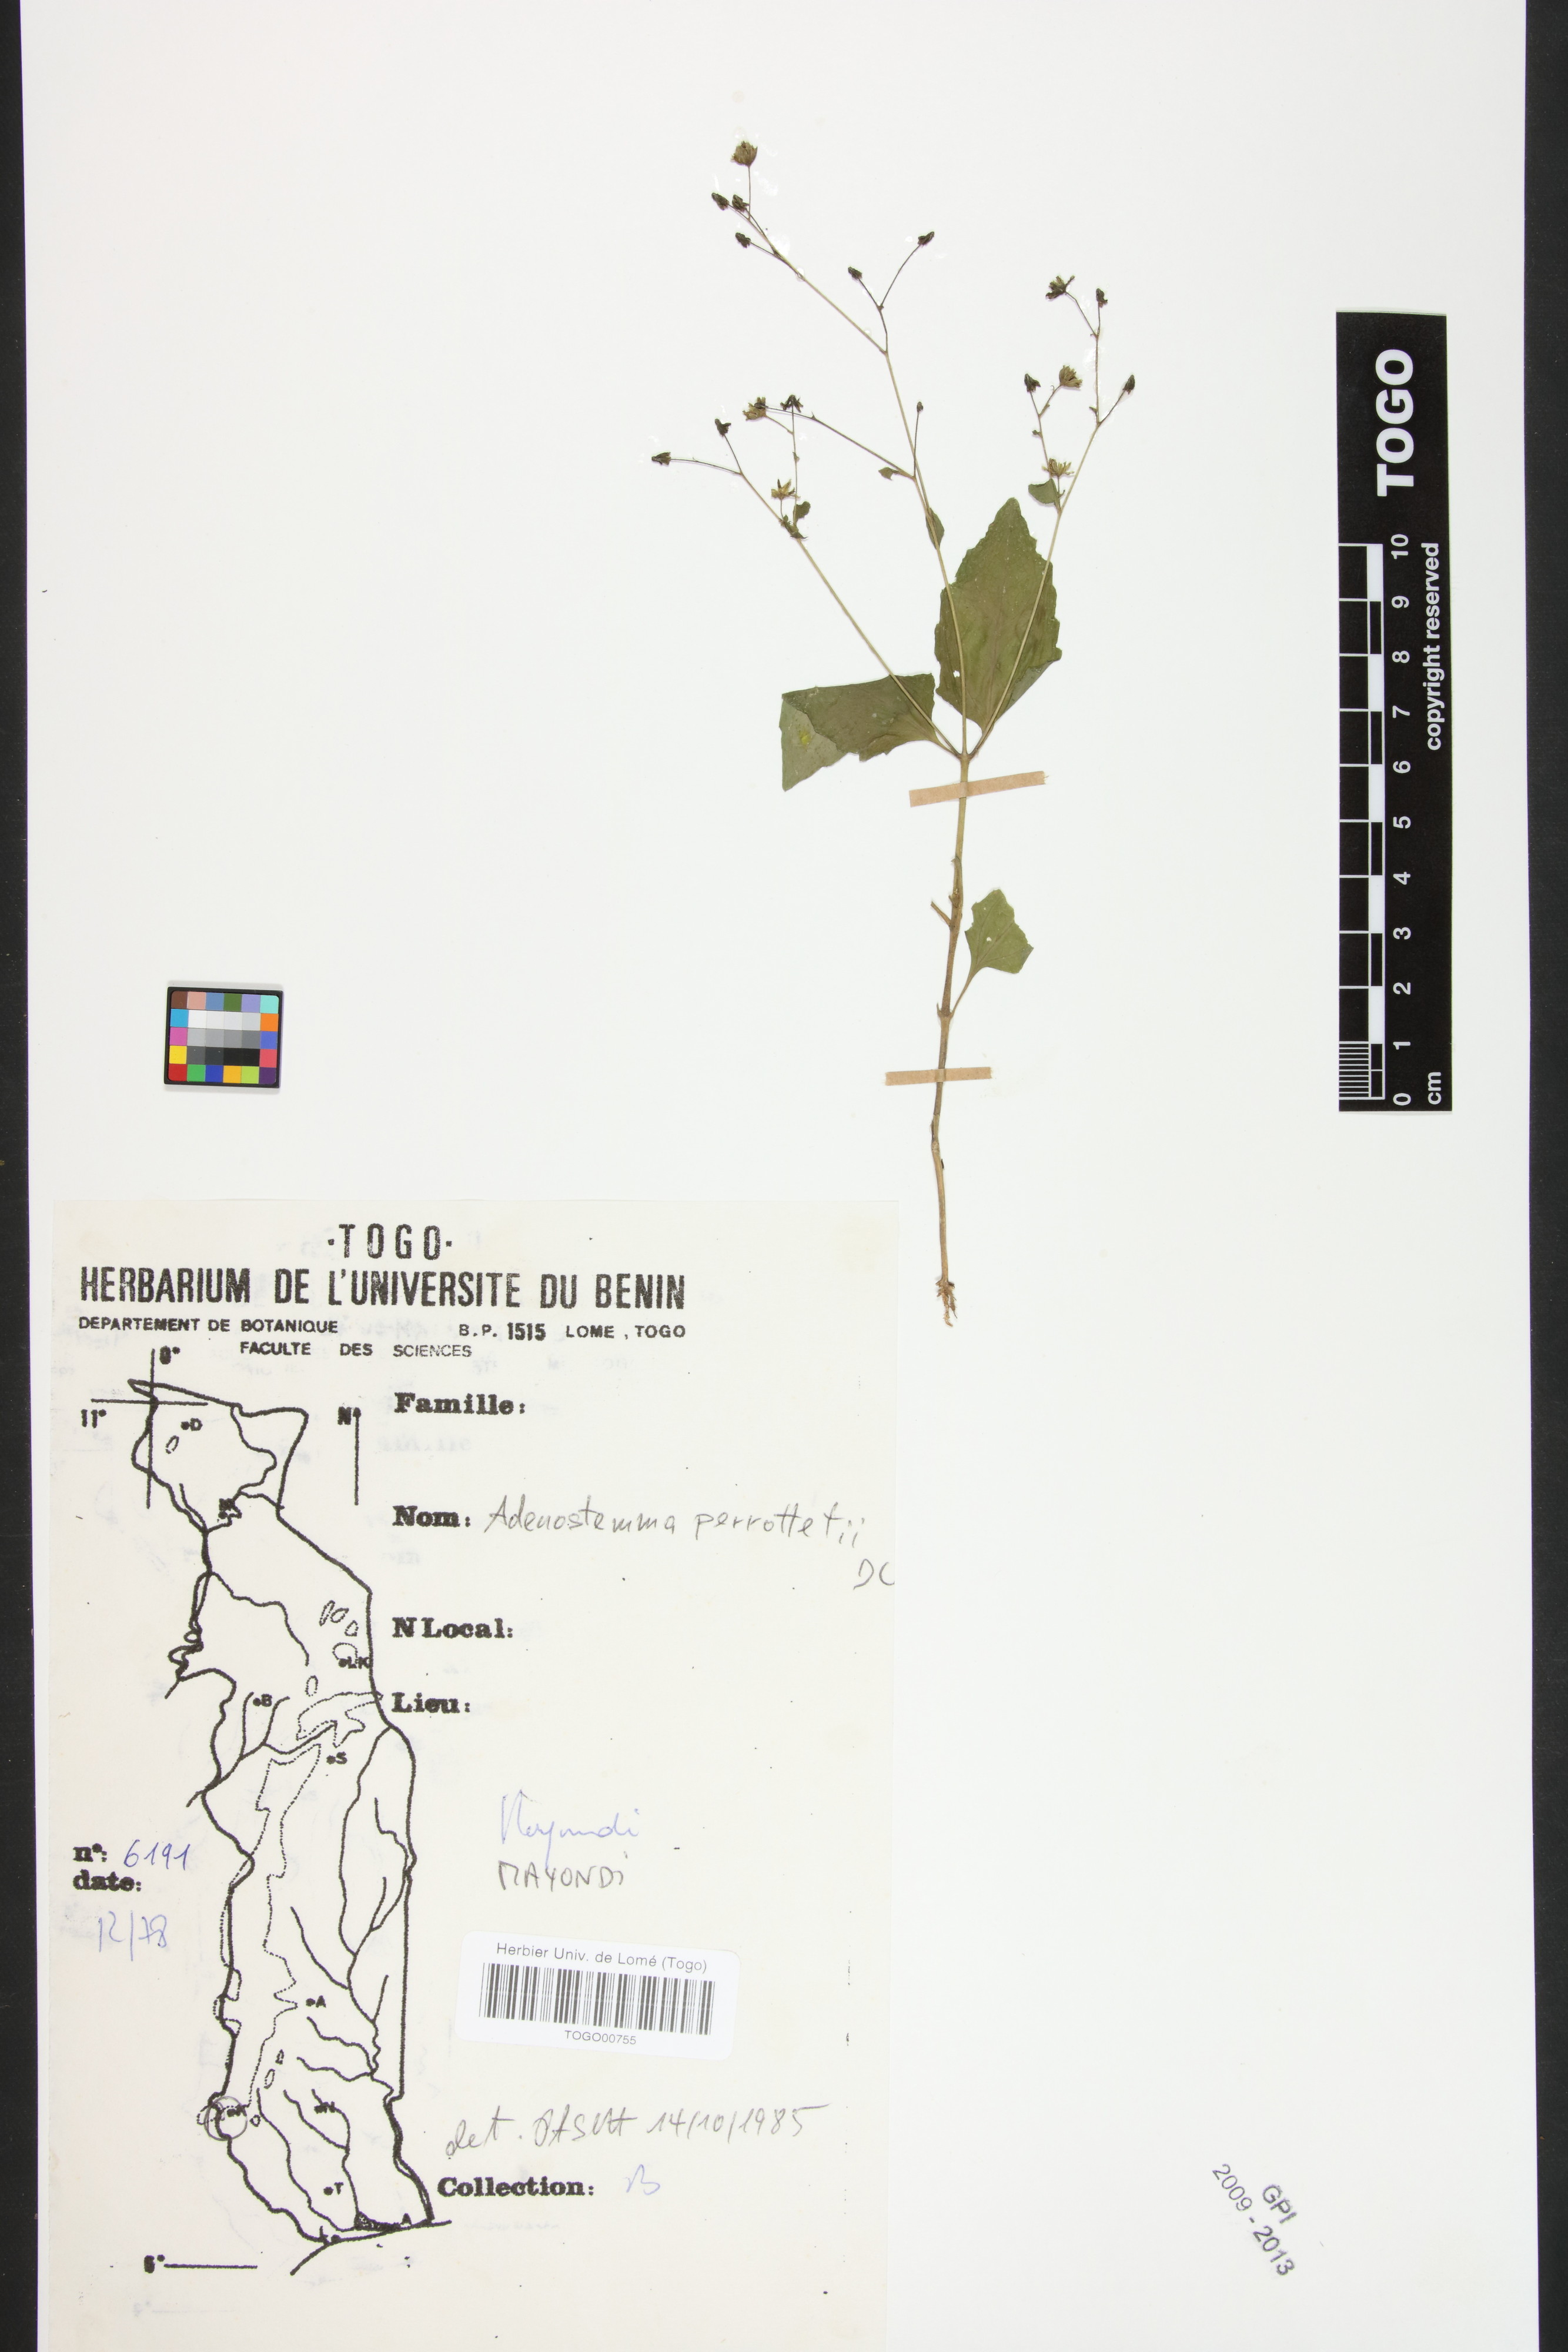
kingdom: Plantae
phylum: Tracheophyta
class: Magnoliopsida
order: Asterales
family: Asteraceae
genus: Adenostemma
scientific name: Adenostemma viscosum
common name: Dungweed
